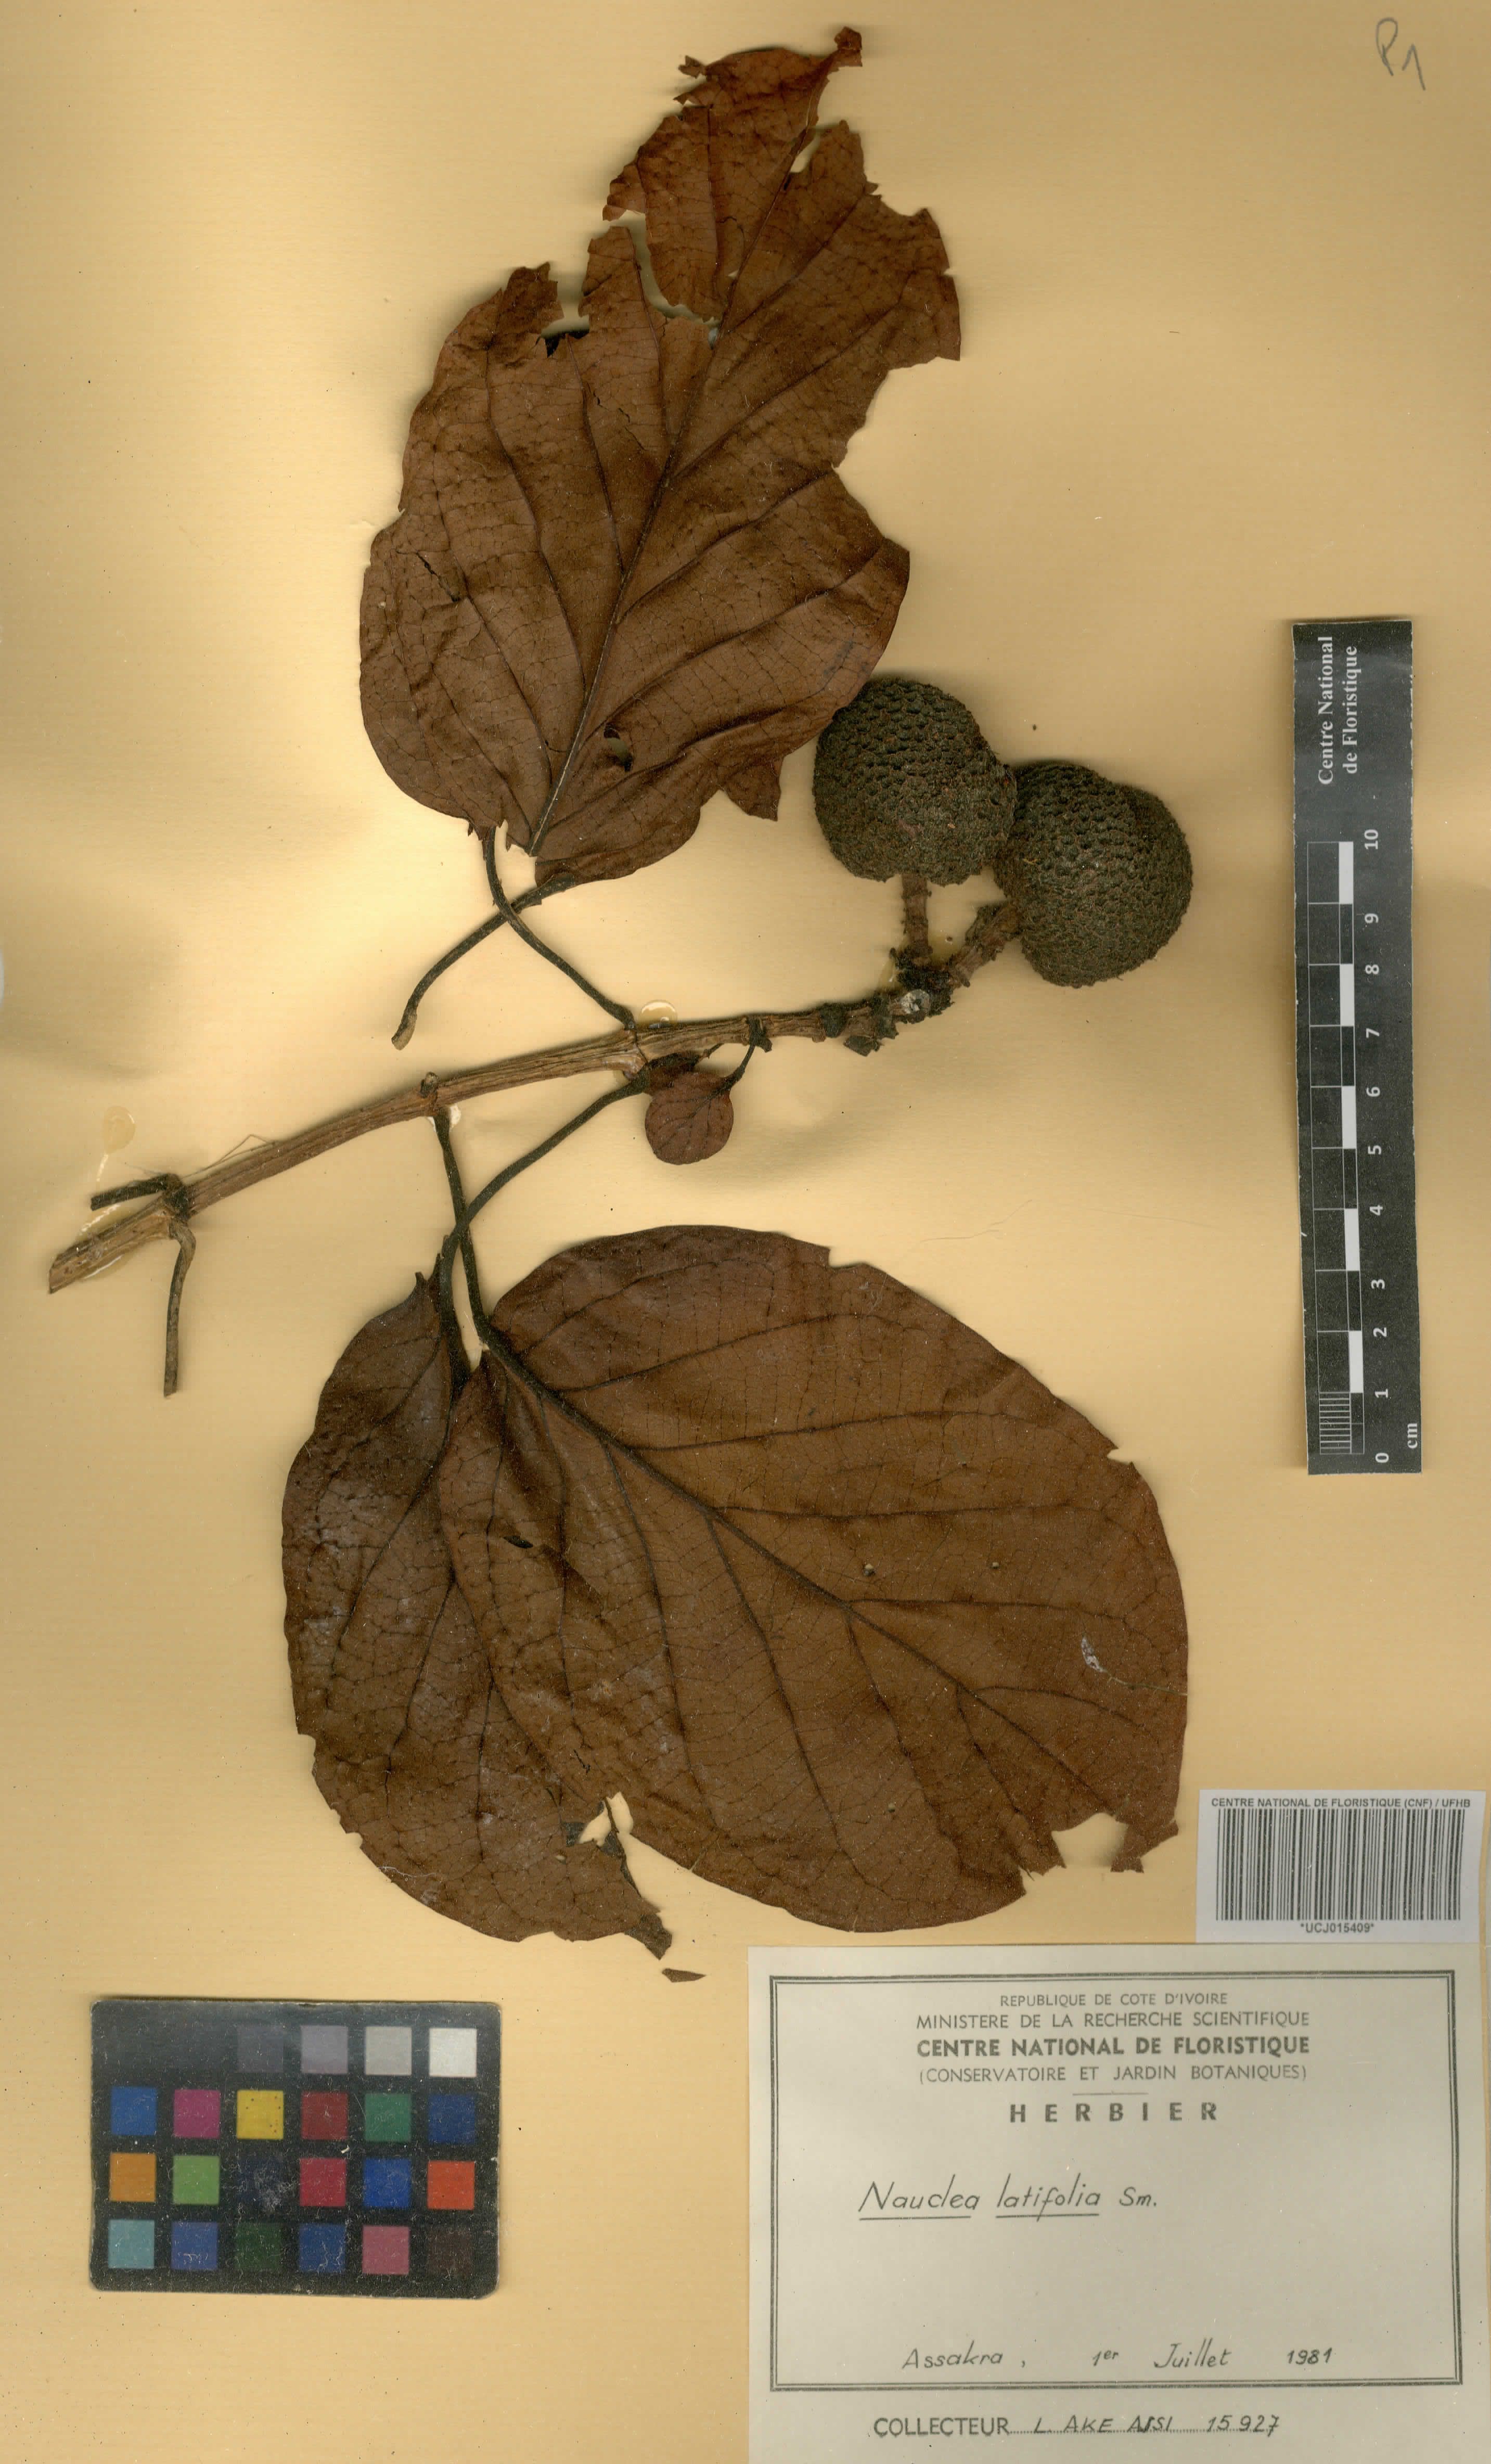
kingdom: Plantae
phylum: Tracheophyta
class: Magnoliopsida
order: Gentianales
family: Rubiaceae
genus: Nauclea
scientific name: Nauclea latifolia
